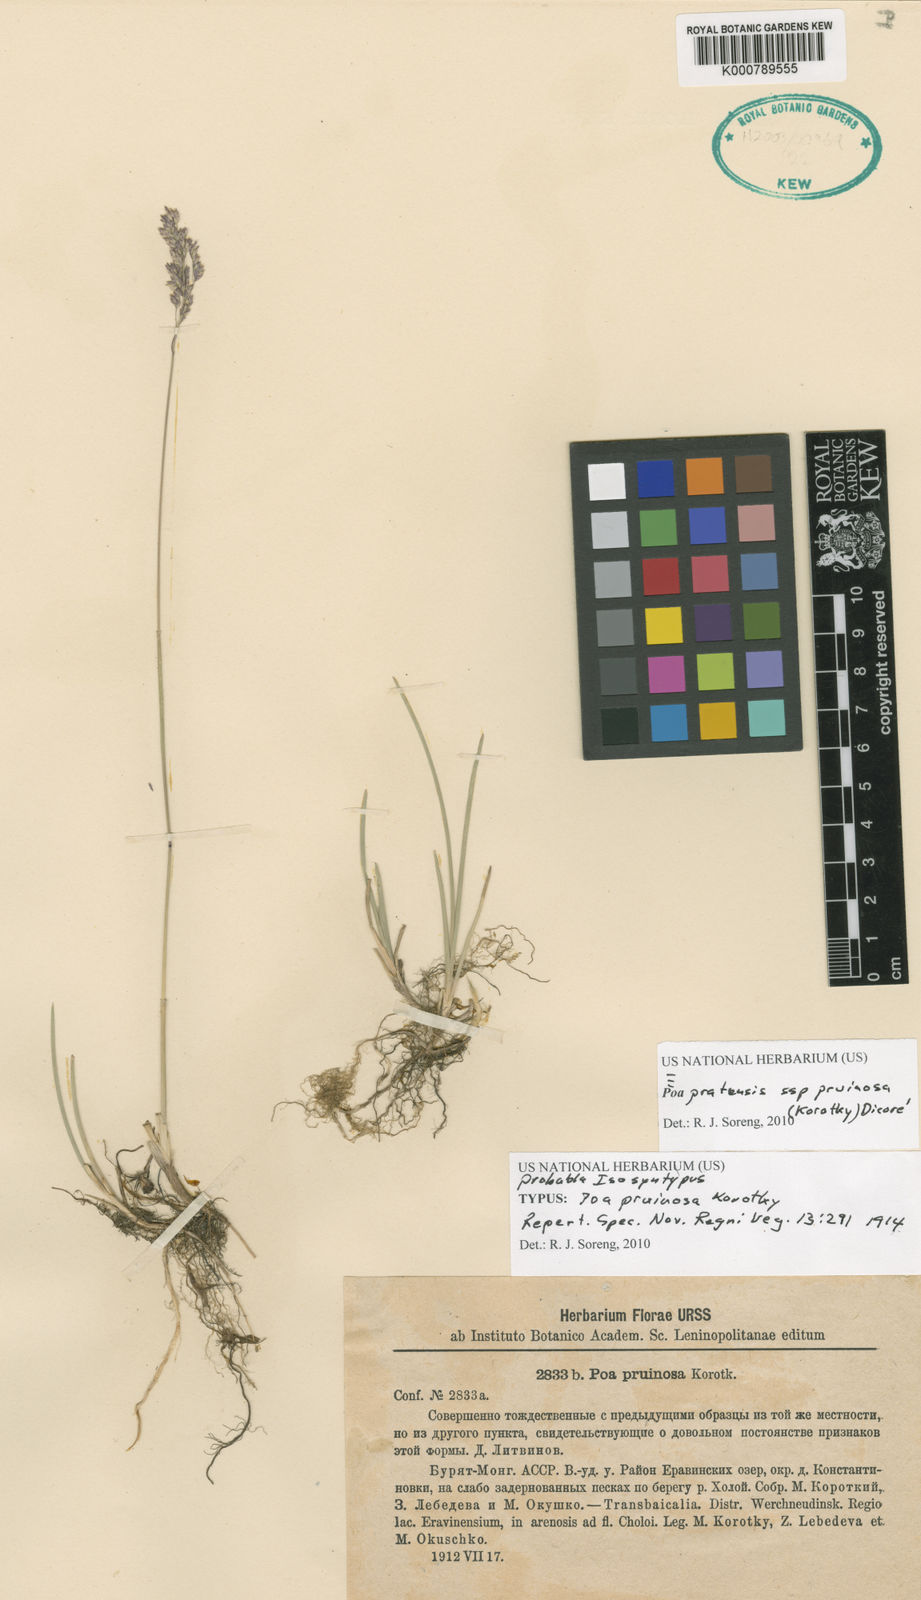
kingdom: Plantae
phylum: Tracheophyta
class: Liliopsida
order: Poales
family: Poaceae
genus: Poa
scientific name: Poa tianschanica
